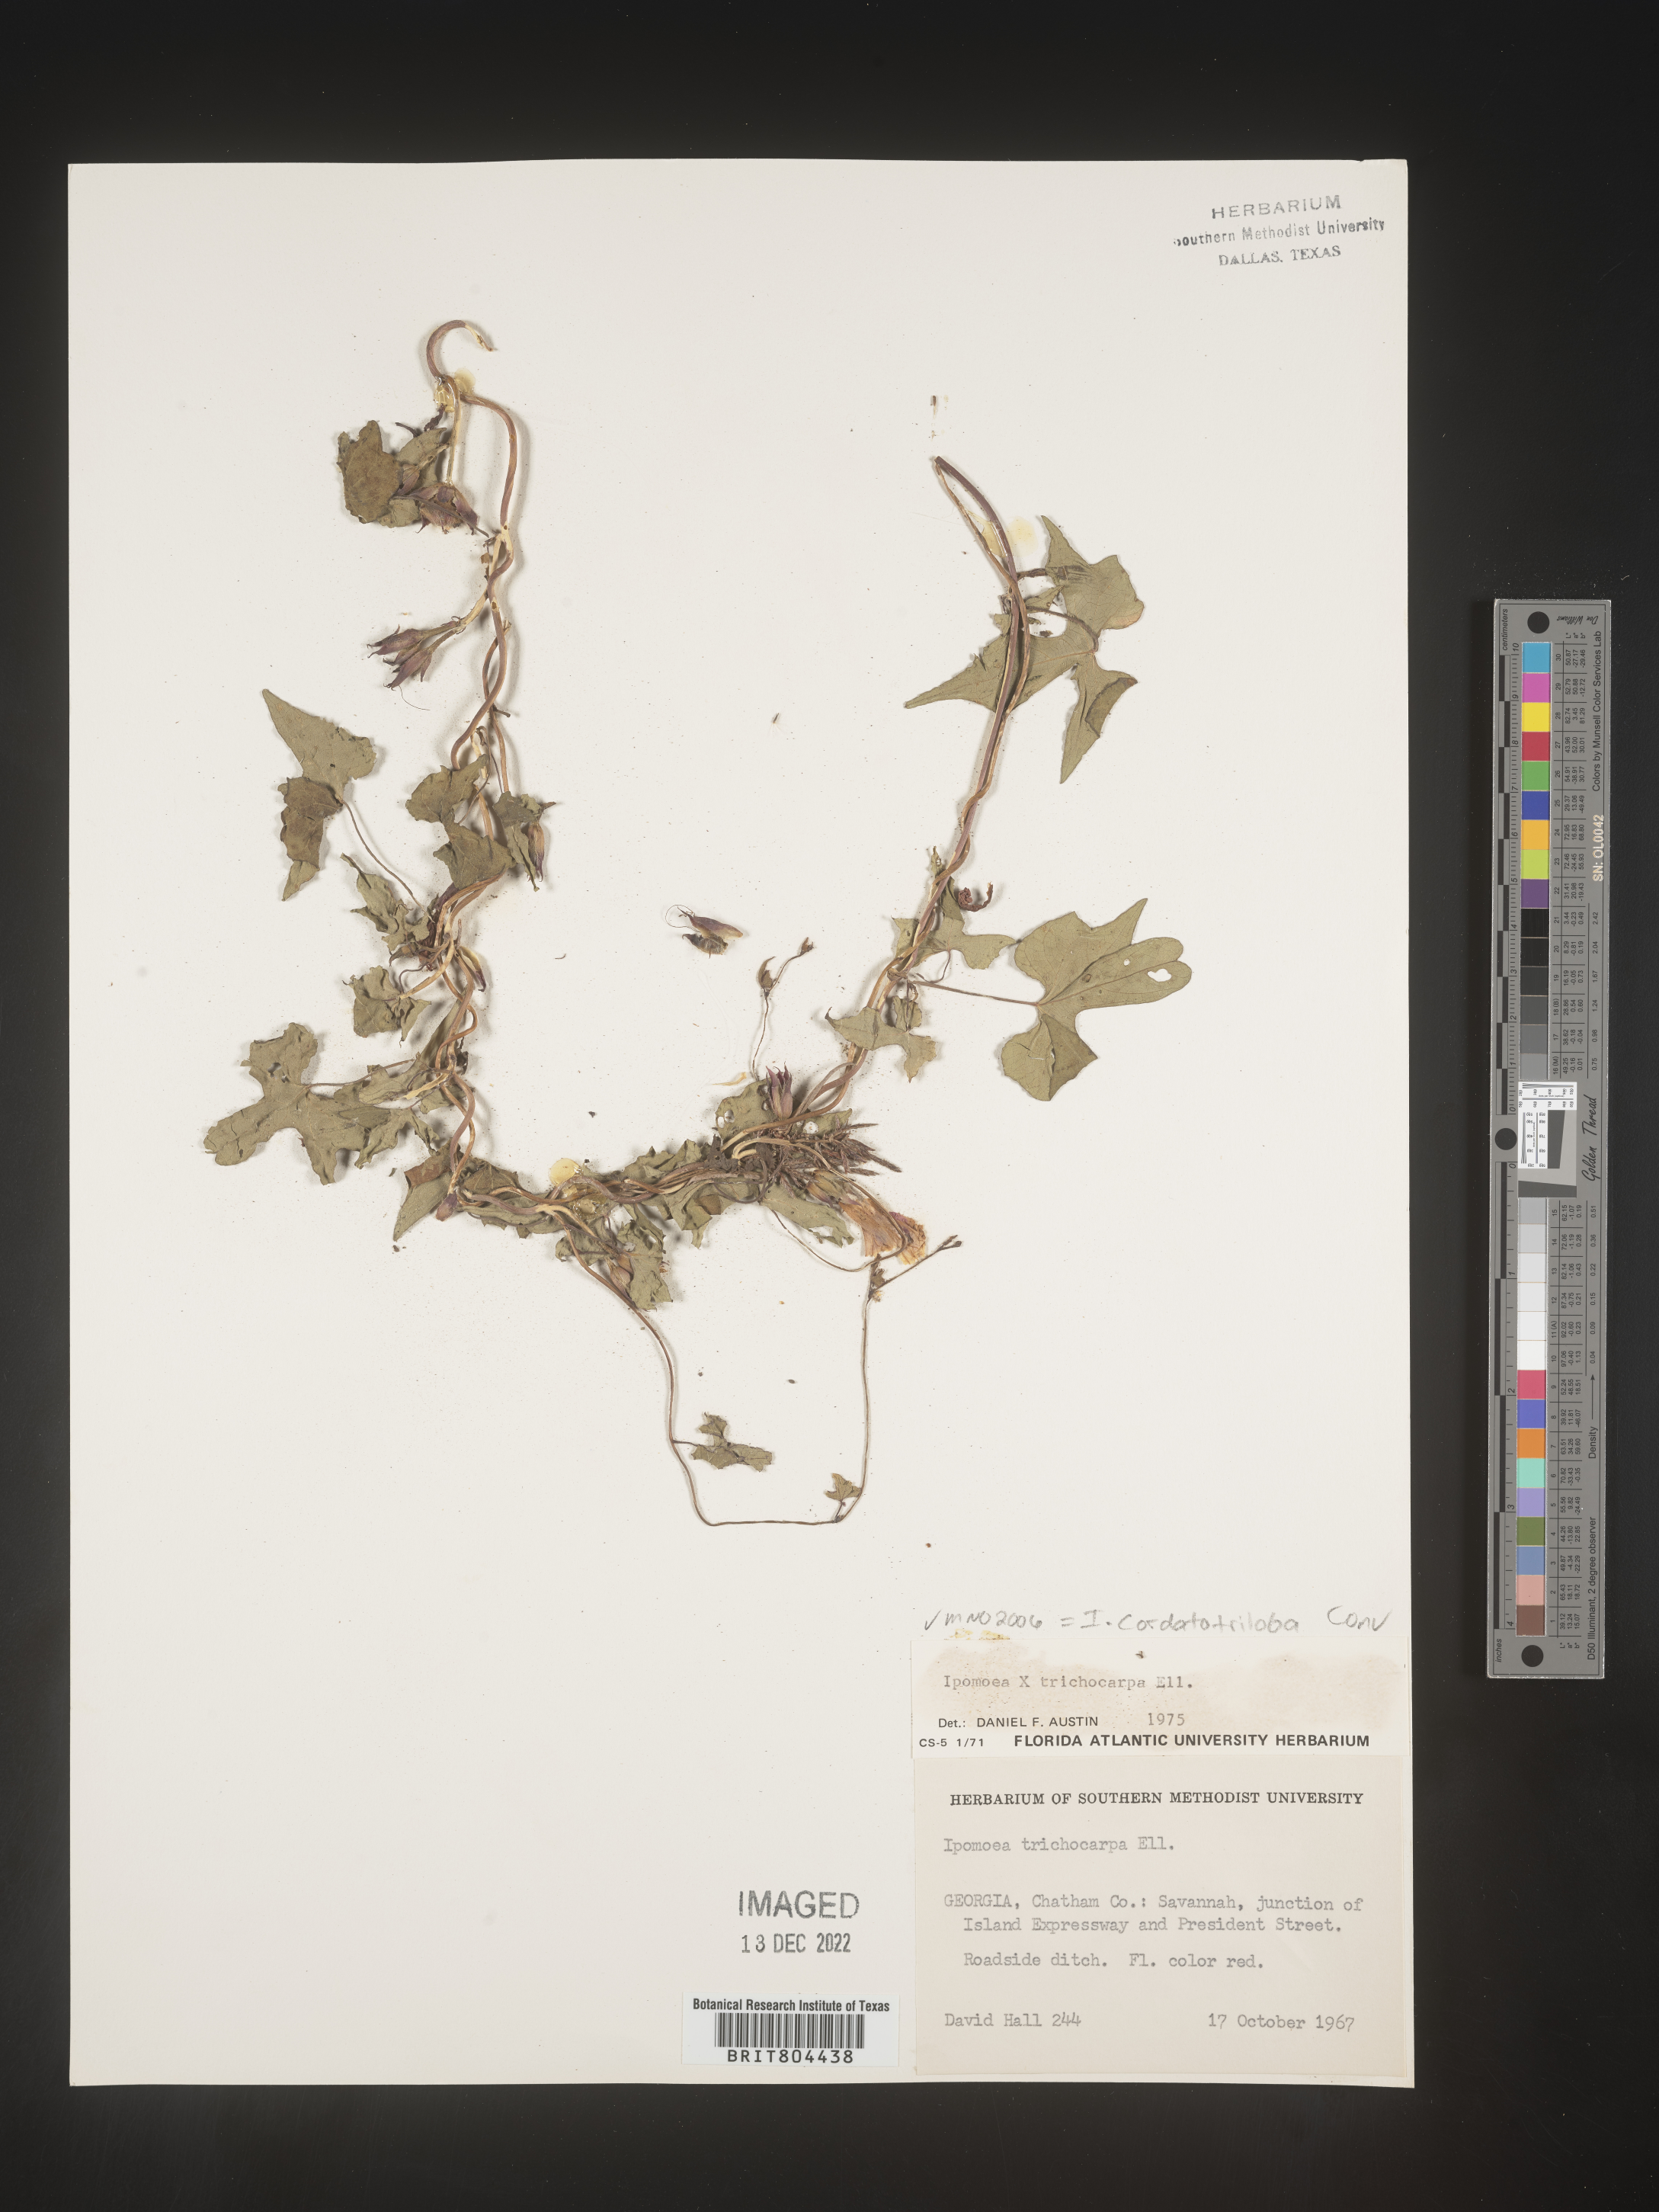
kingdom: Plantae
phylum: Tracheophyta
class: Magnoliopsida
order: Solanales
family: Convolvulaceae
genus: Ipomoea
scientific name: Ipomoea cordatotriloba
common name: Cotton morning glory
